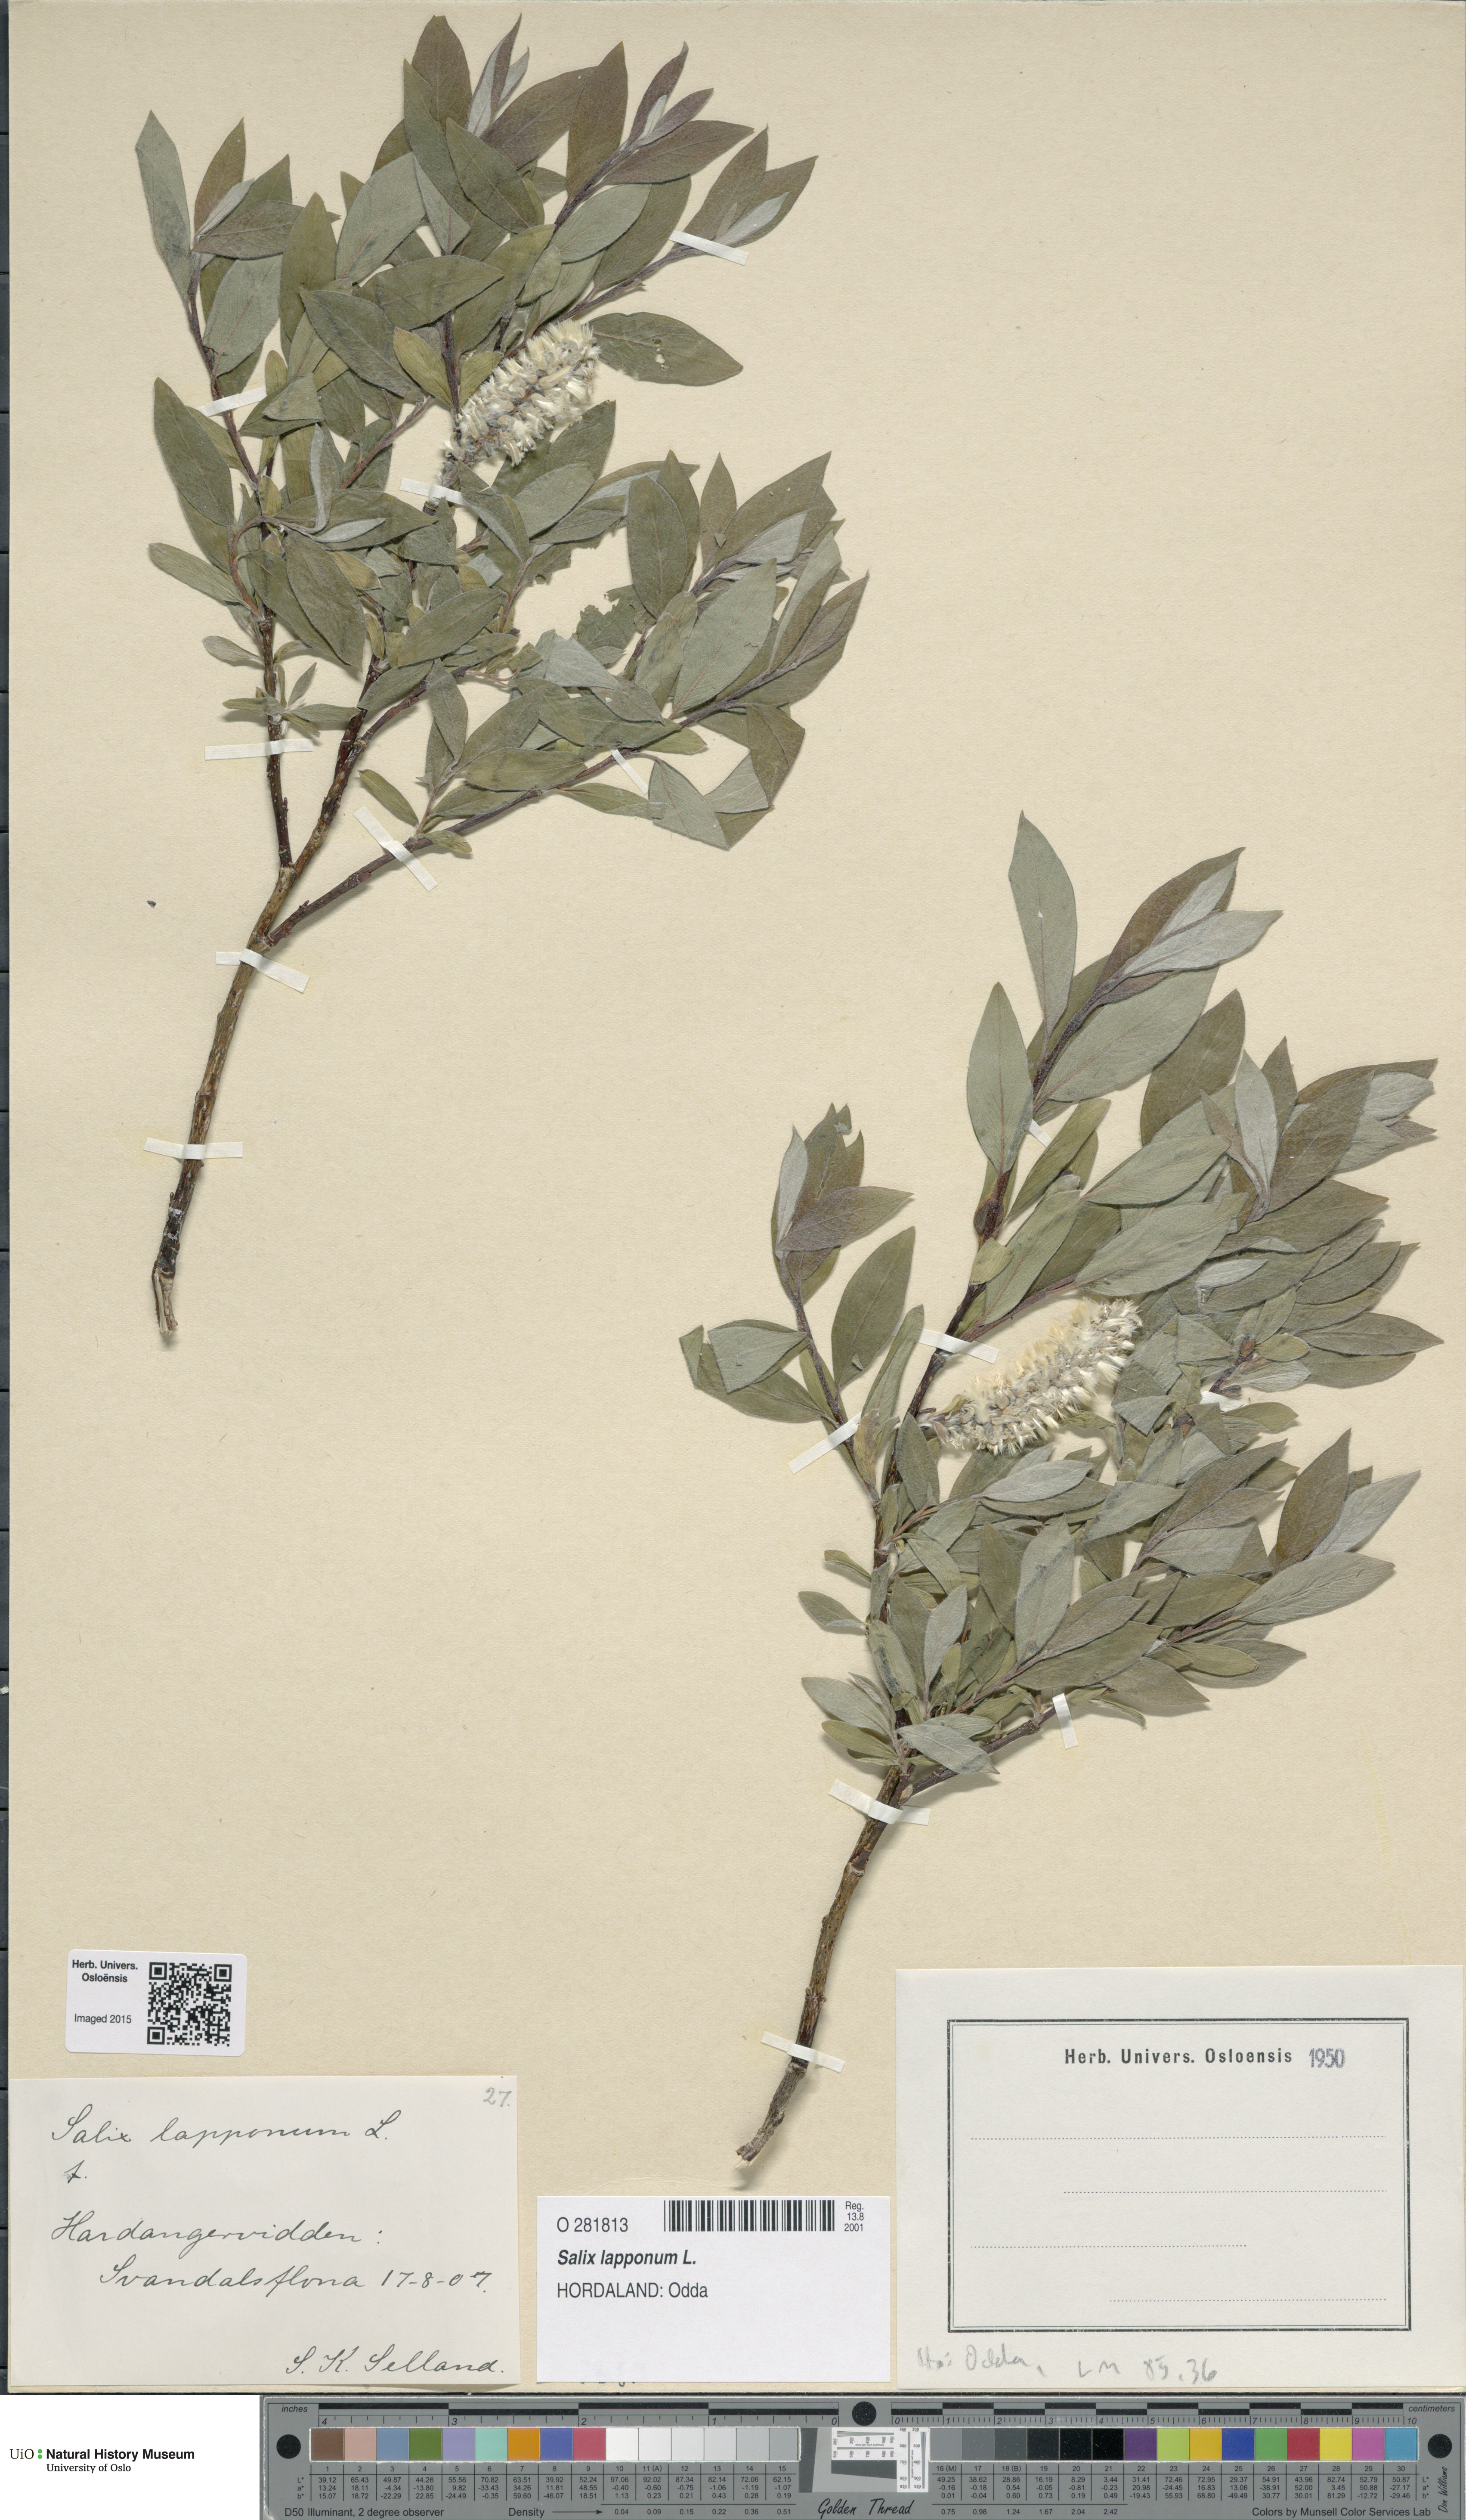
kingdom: Plantae
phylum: Tracheophyta
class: Magnoliopsida
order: Malpighiales
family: Salicaceae
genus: Salix
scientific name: Salix lapponum
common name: Downy willow
